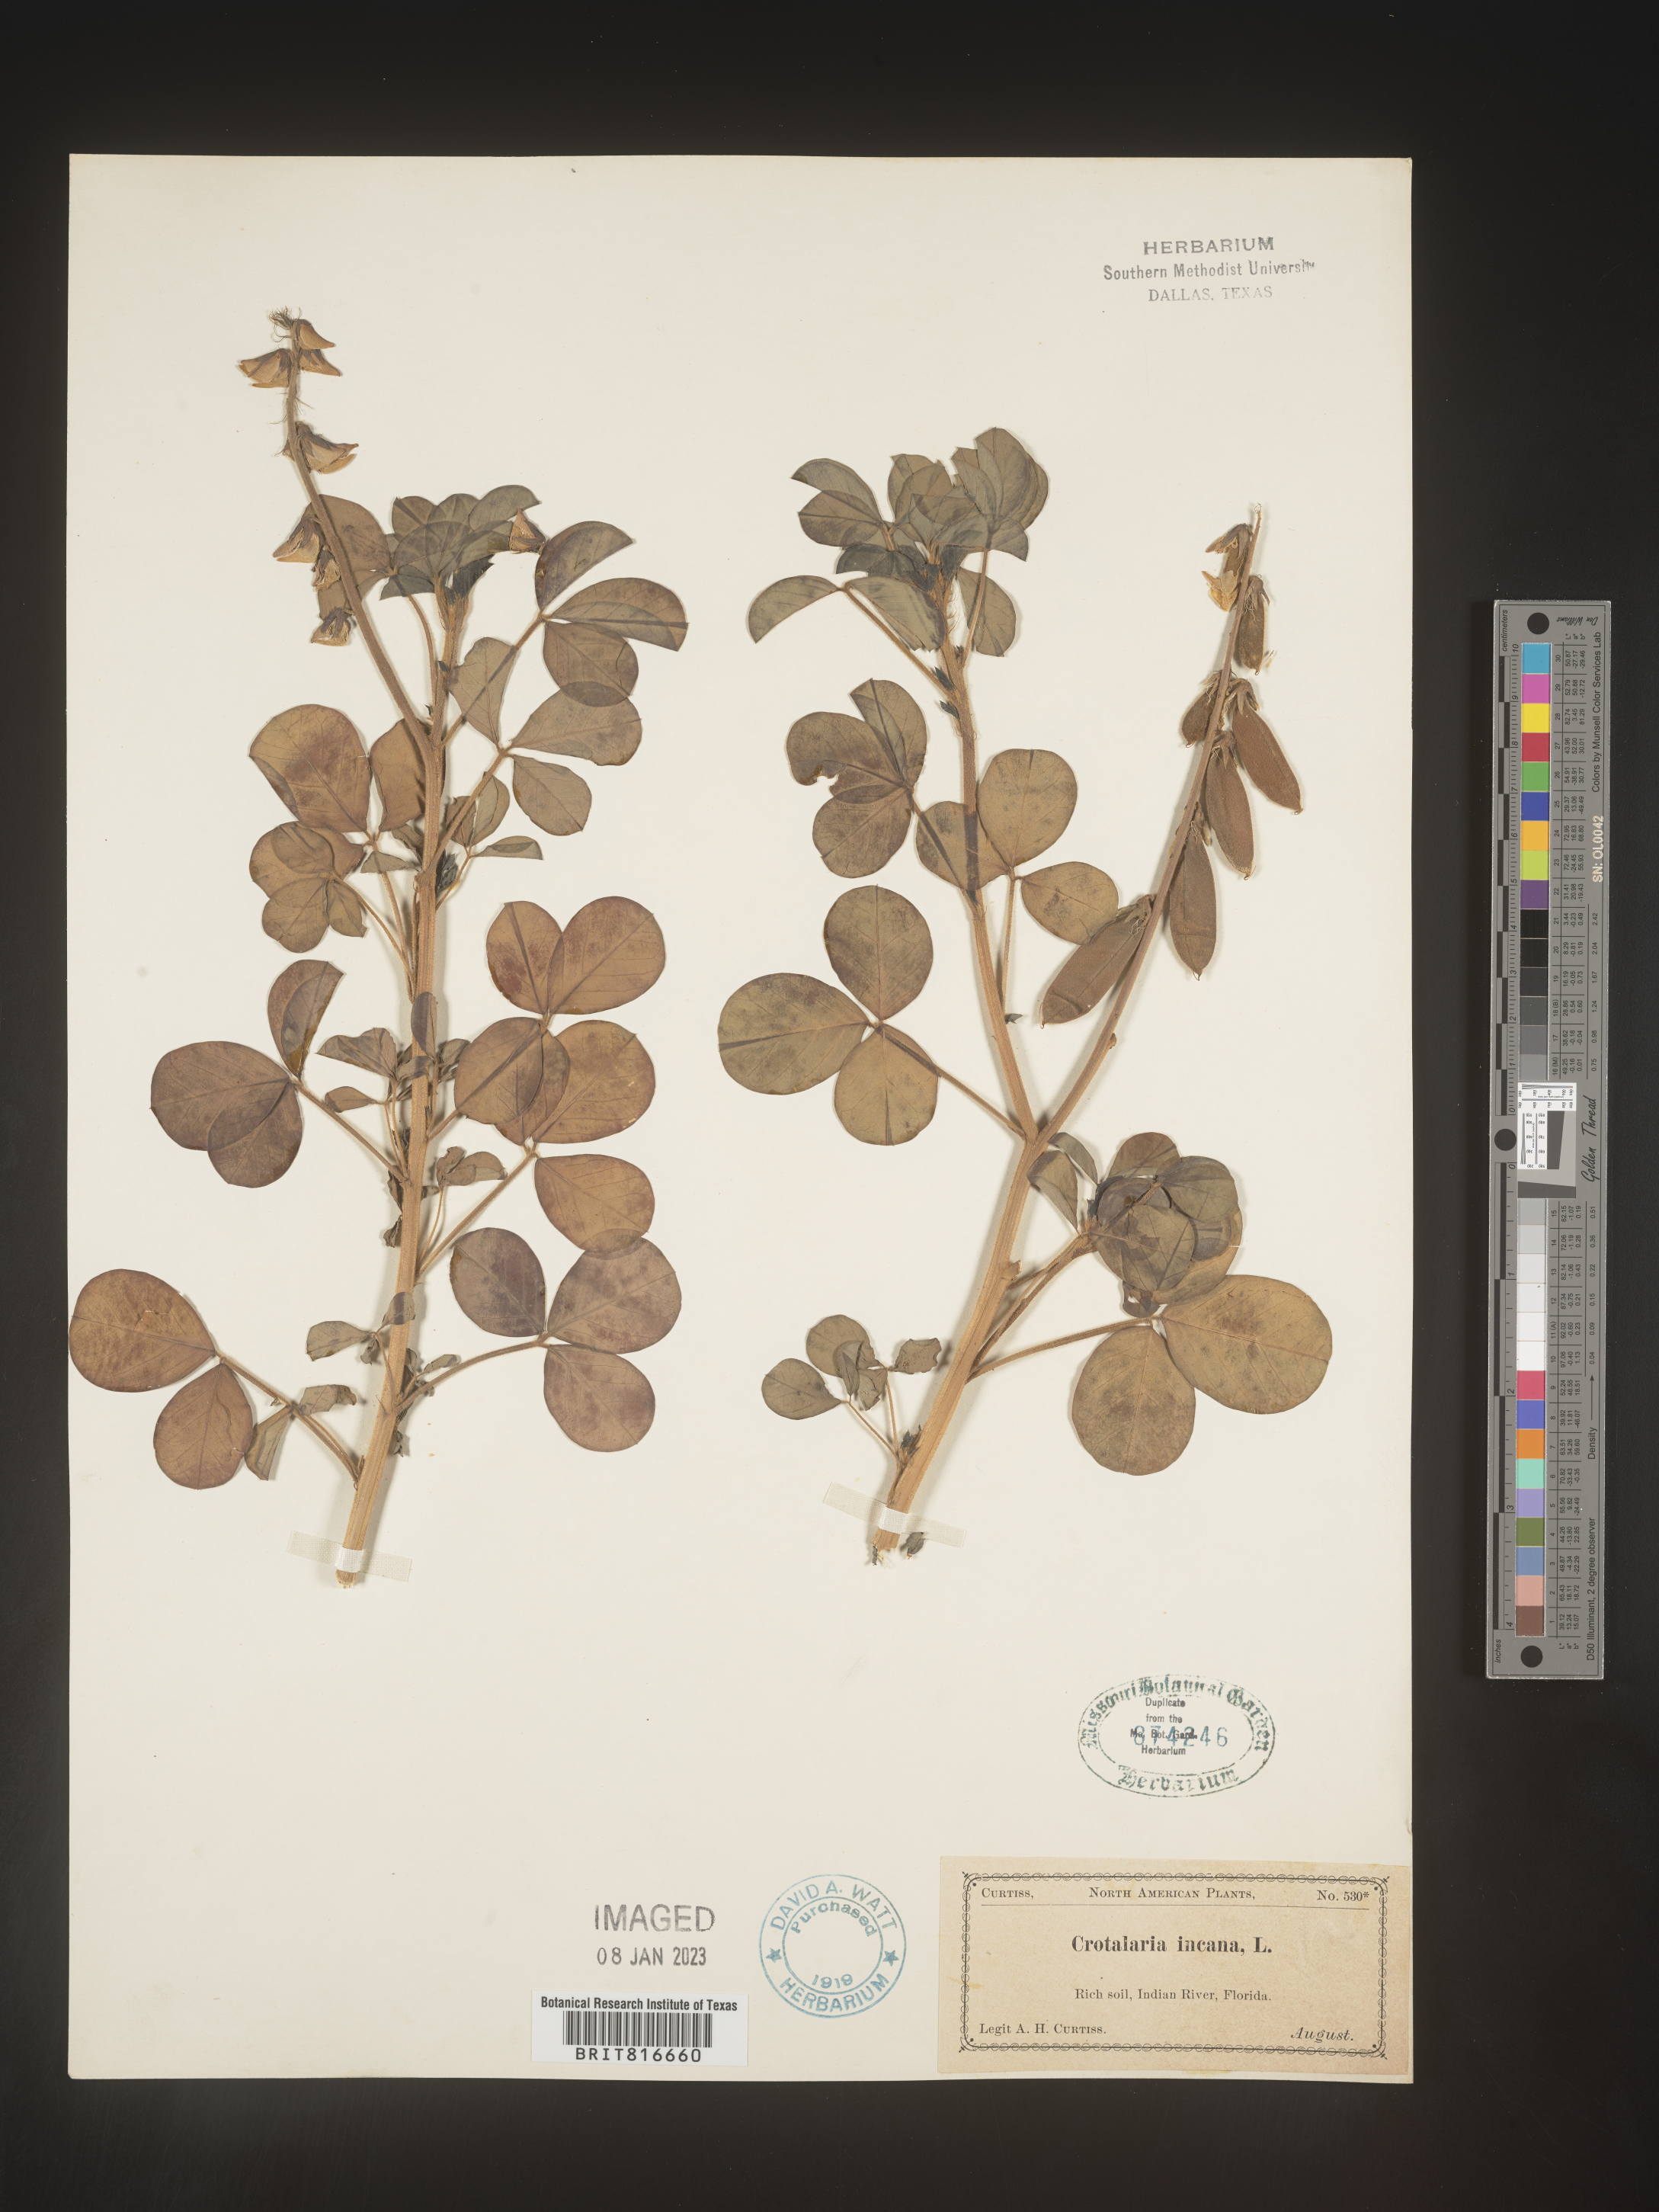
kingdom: Plantae
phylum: Tracheophyta
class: Magnoliopsida
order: Fabales
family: Fabaceae
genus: Crotalaria
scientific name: Crotalaria
